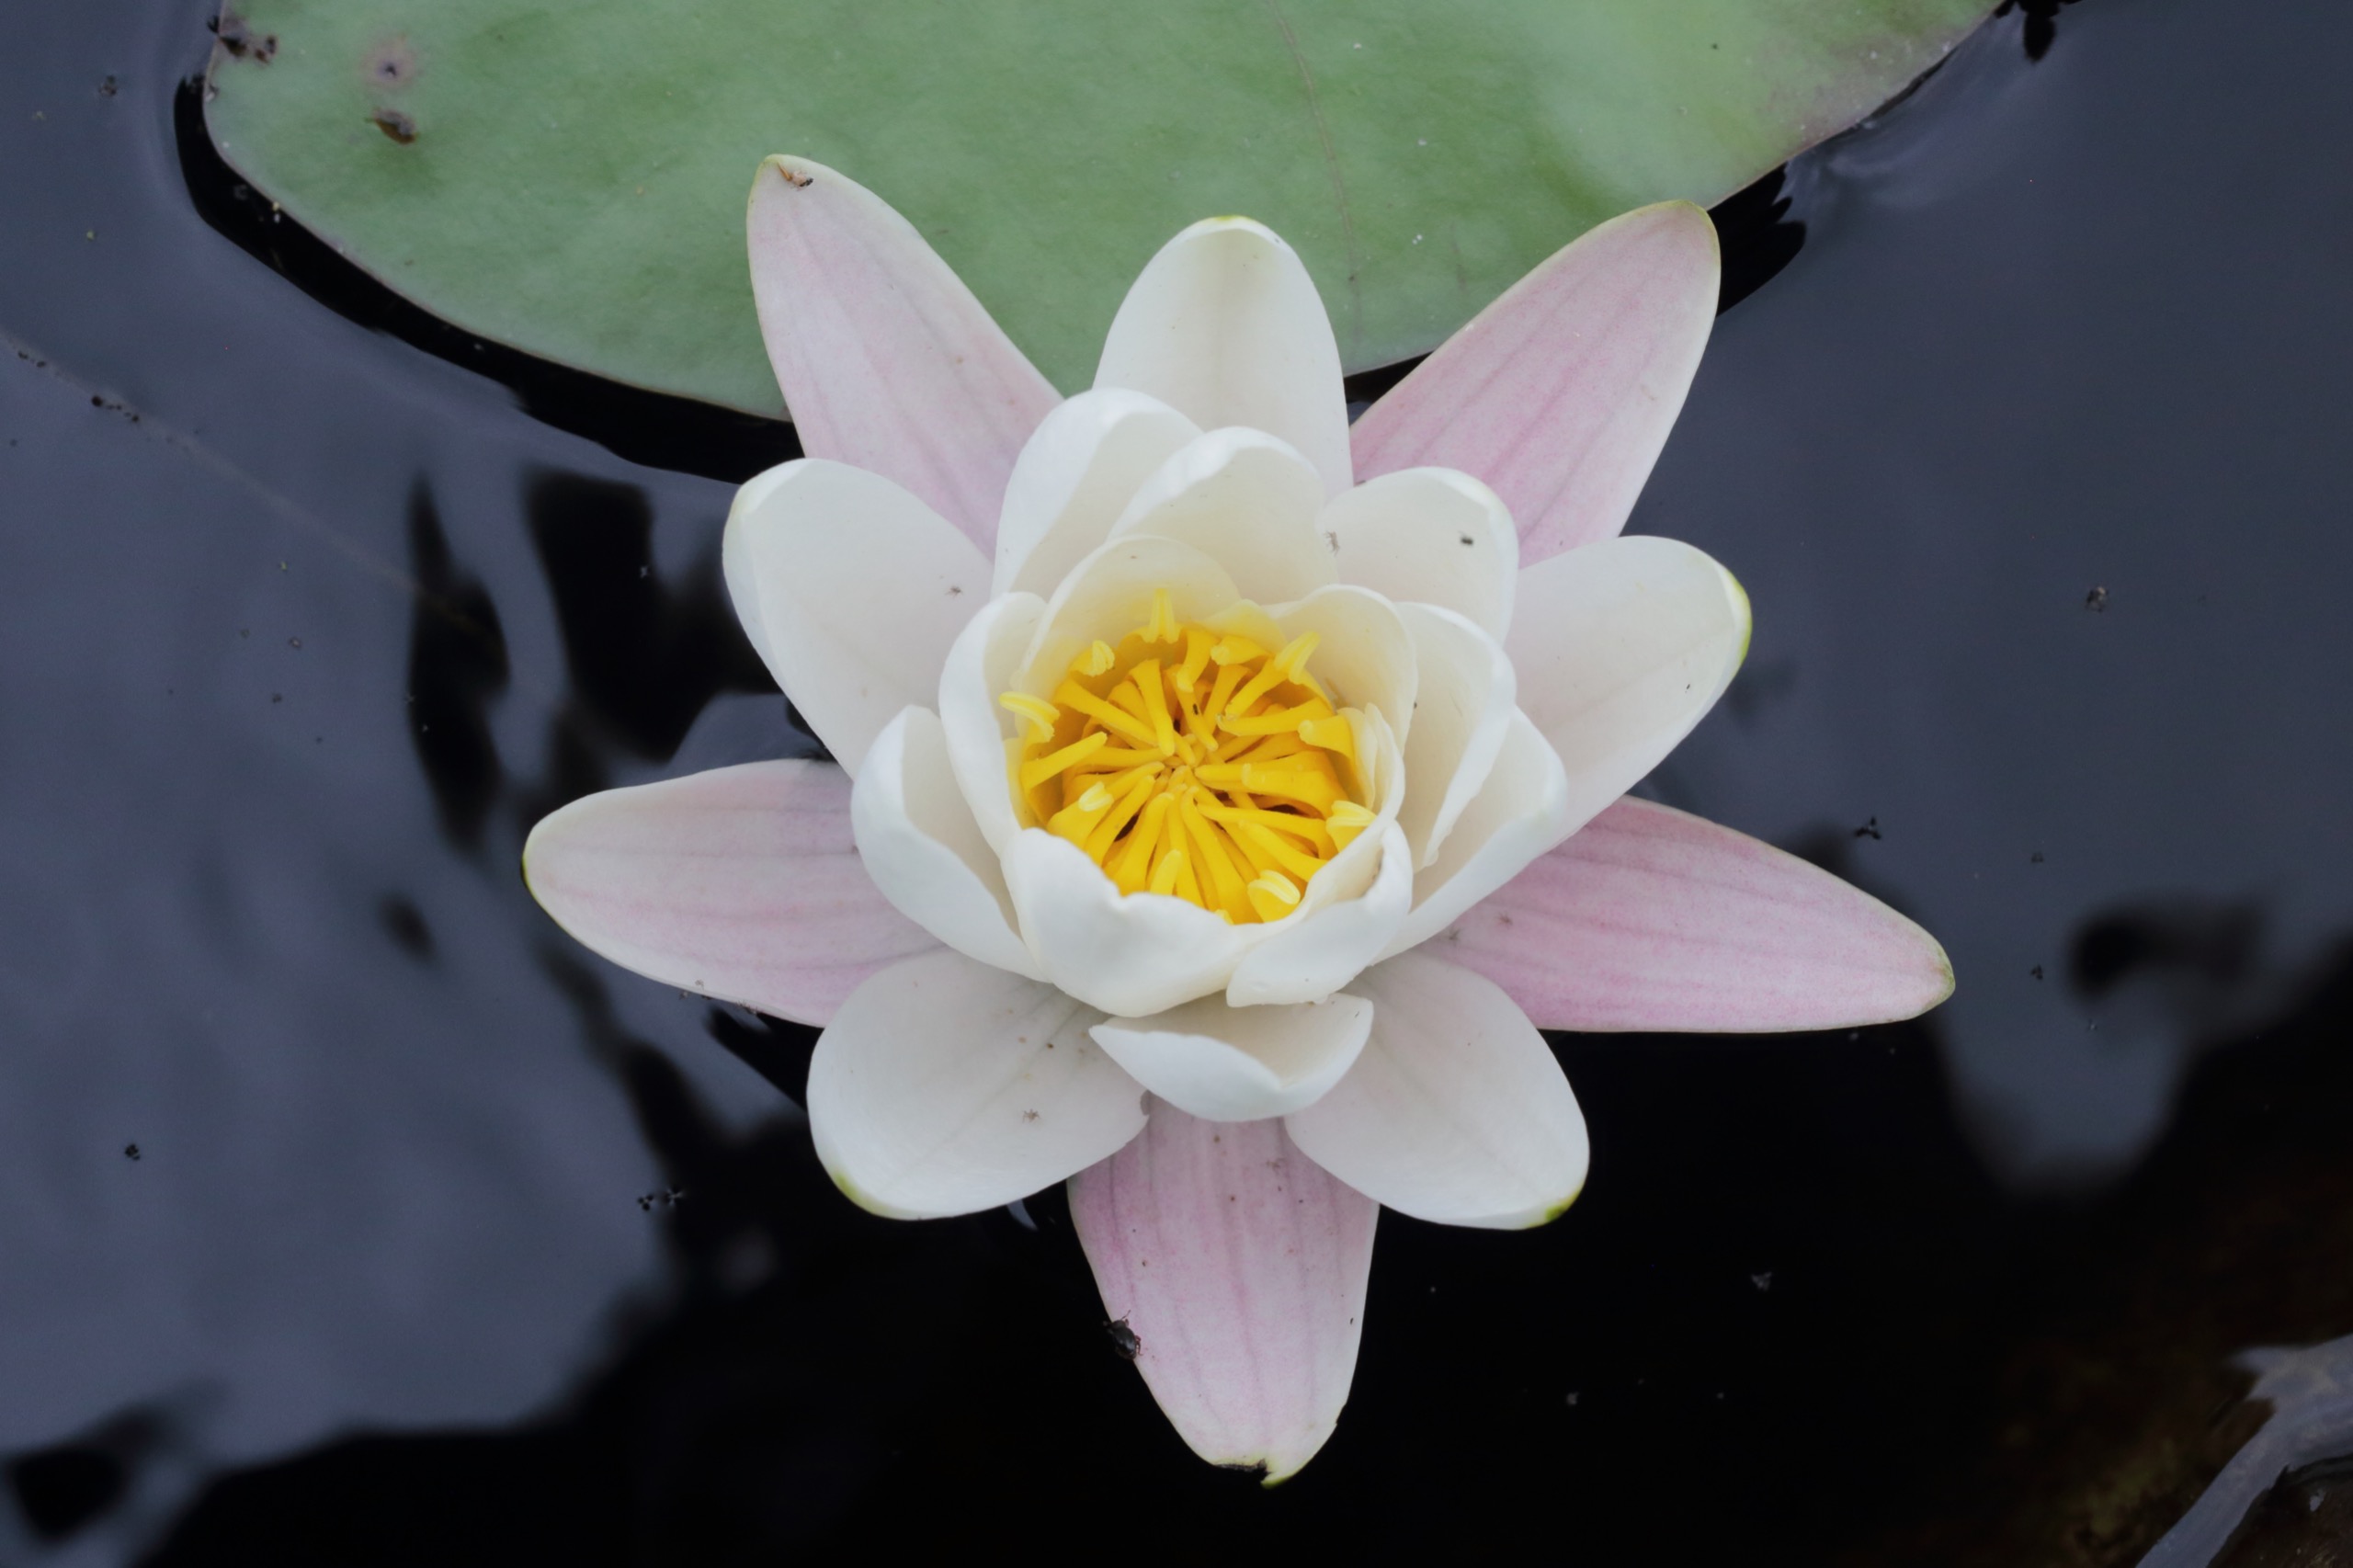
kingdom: Plantae
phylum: Tracheophyta
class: Magnoliopsida
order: Nymphaeales
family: Nymphaeaceae
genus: Nymphaea
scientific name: Nymphaea alba
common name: Hvid åkande
